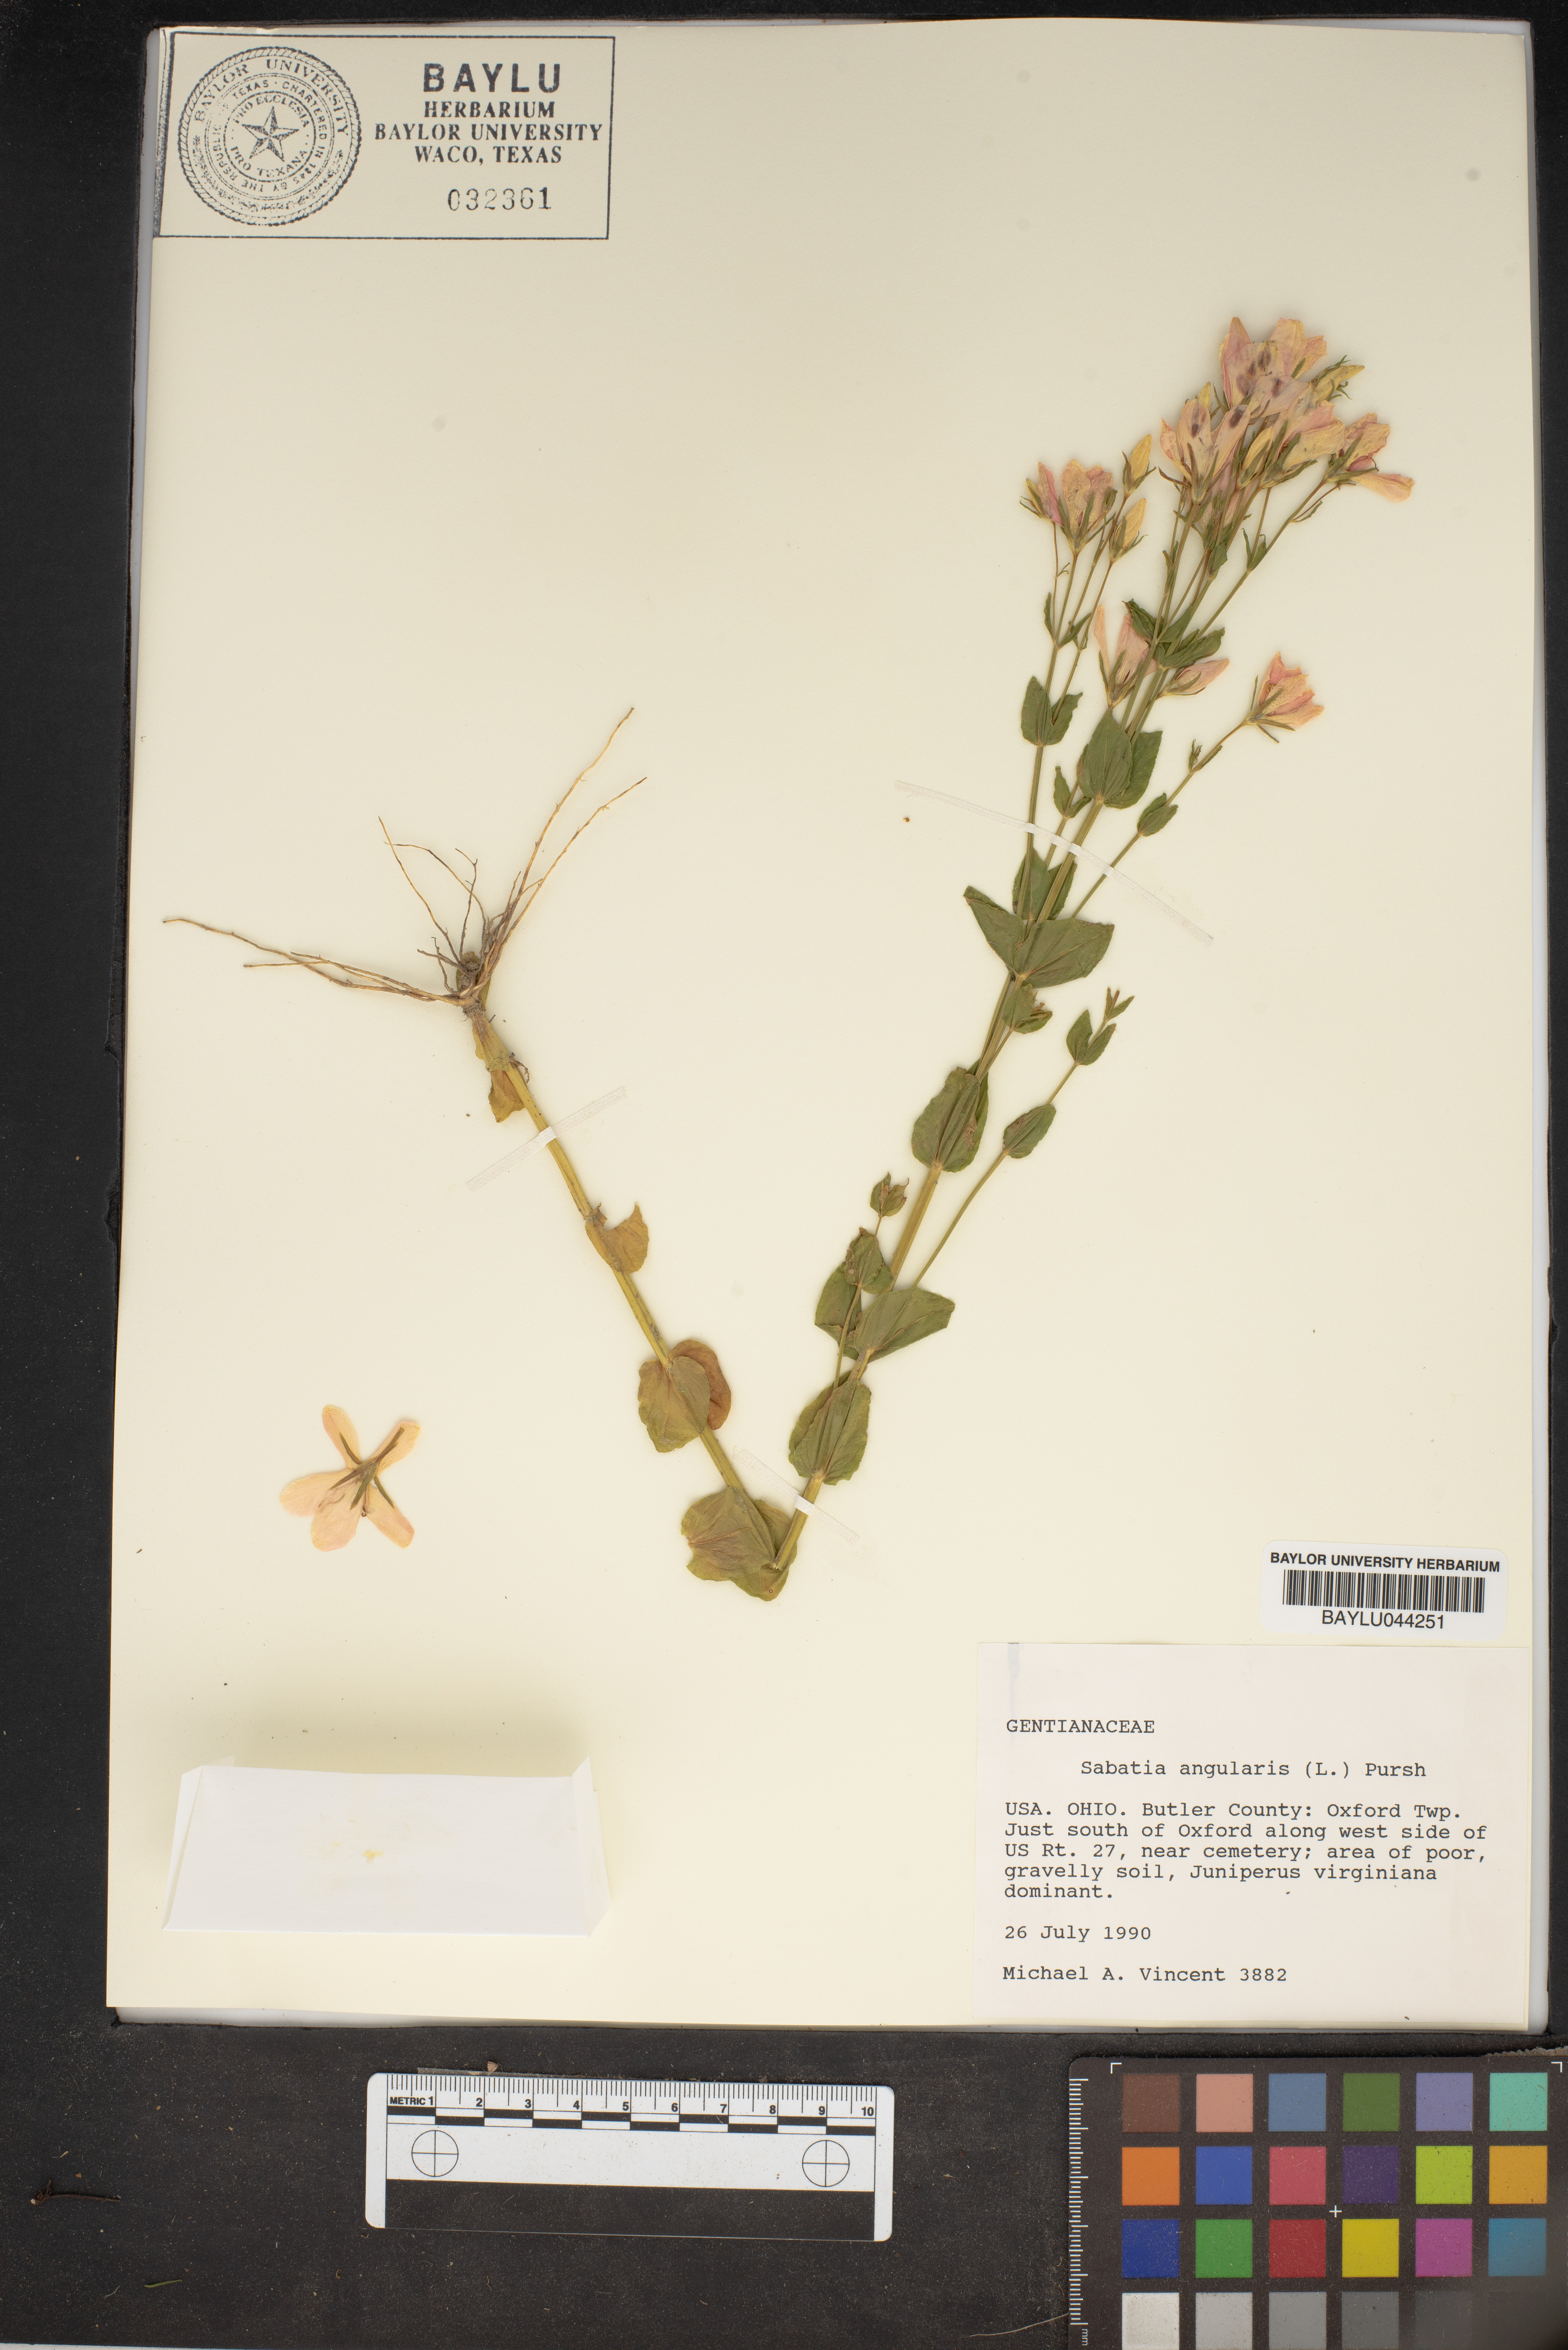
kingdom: Plantae
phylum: Tracheophyta
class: Magnoliopsida
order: Gentianales
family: Gentianaceae
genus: Sabatia
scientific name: Sabatia angularis
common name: Rose-pink
